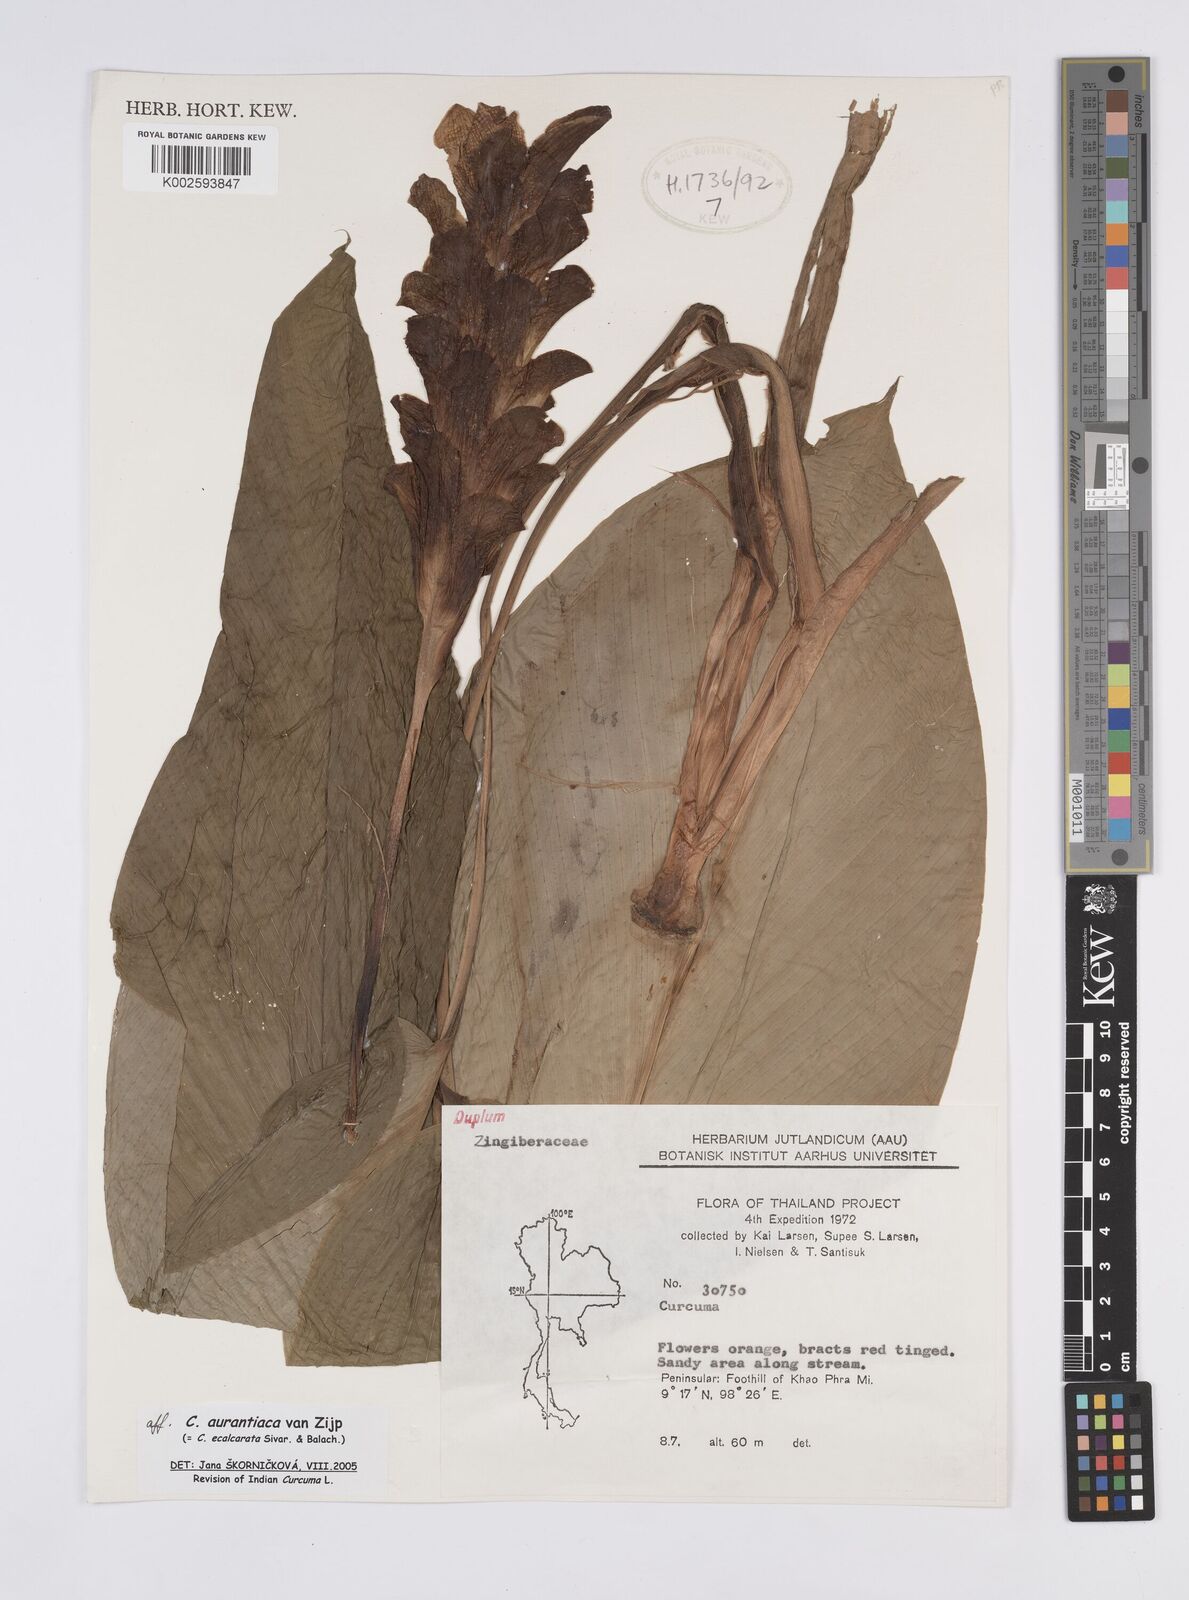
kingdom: Plantae
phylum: Tracheophyta
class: Liliopsida
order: Zingiberales
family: Zingiberaceae
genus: Curcuma
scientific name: Curcuma aurantiaca
